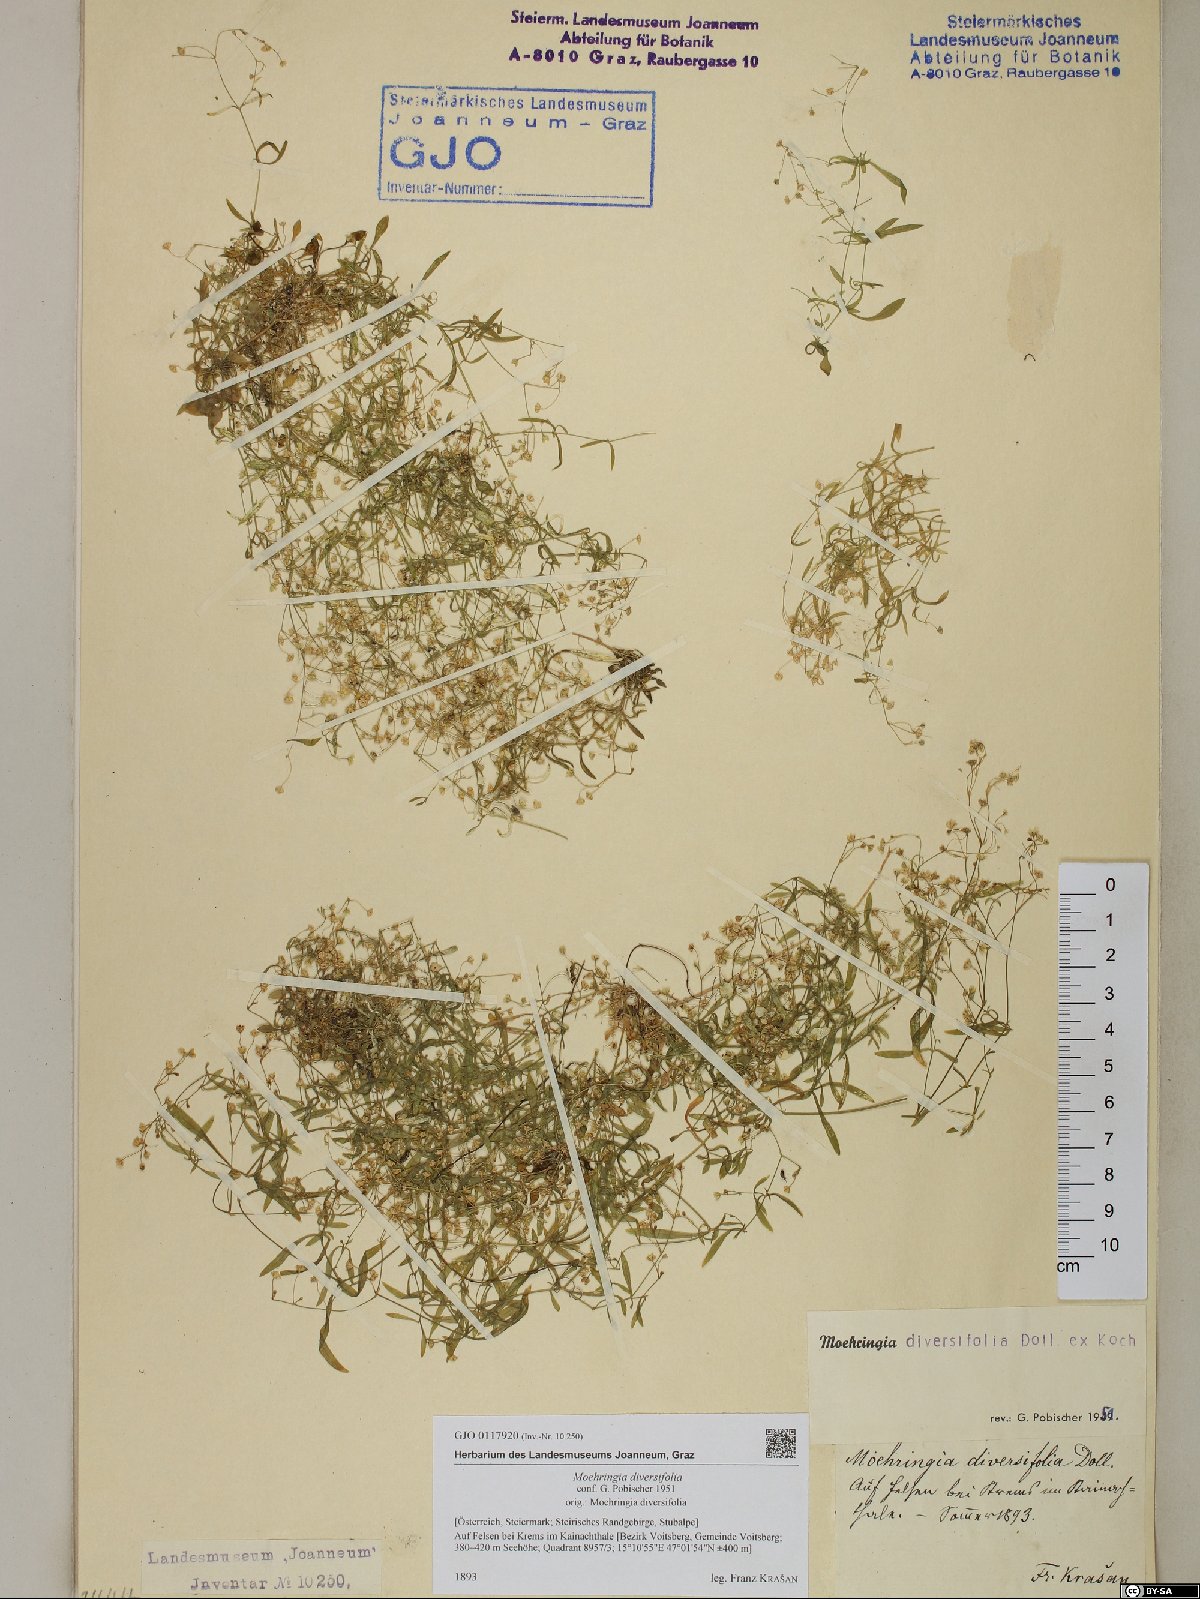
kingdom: Plantae
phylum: Tracheophyta
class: Magnoliopsida
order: Caryophyllales
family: Caryophyllaceae
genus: Moehringia
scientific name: Moehringia diversifolia
